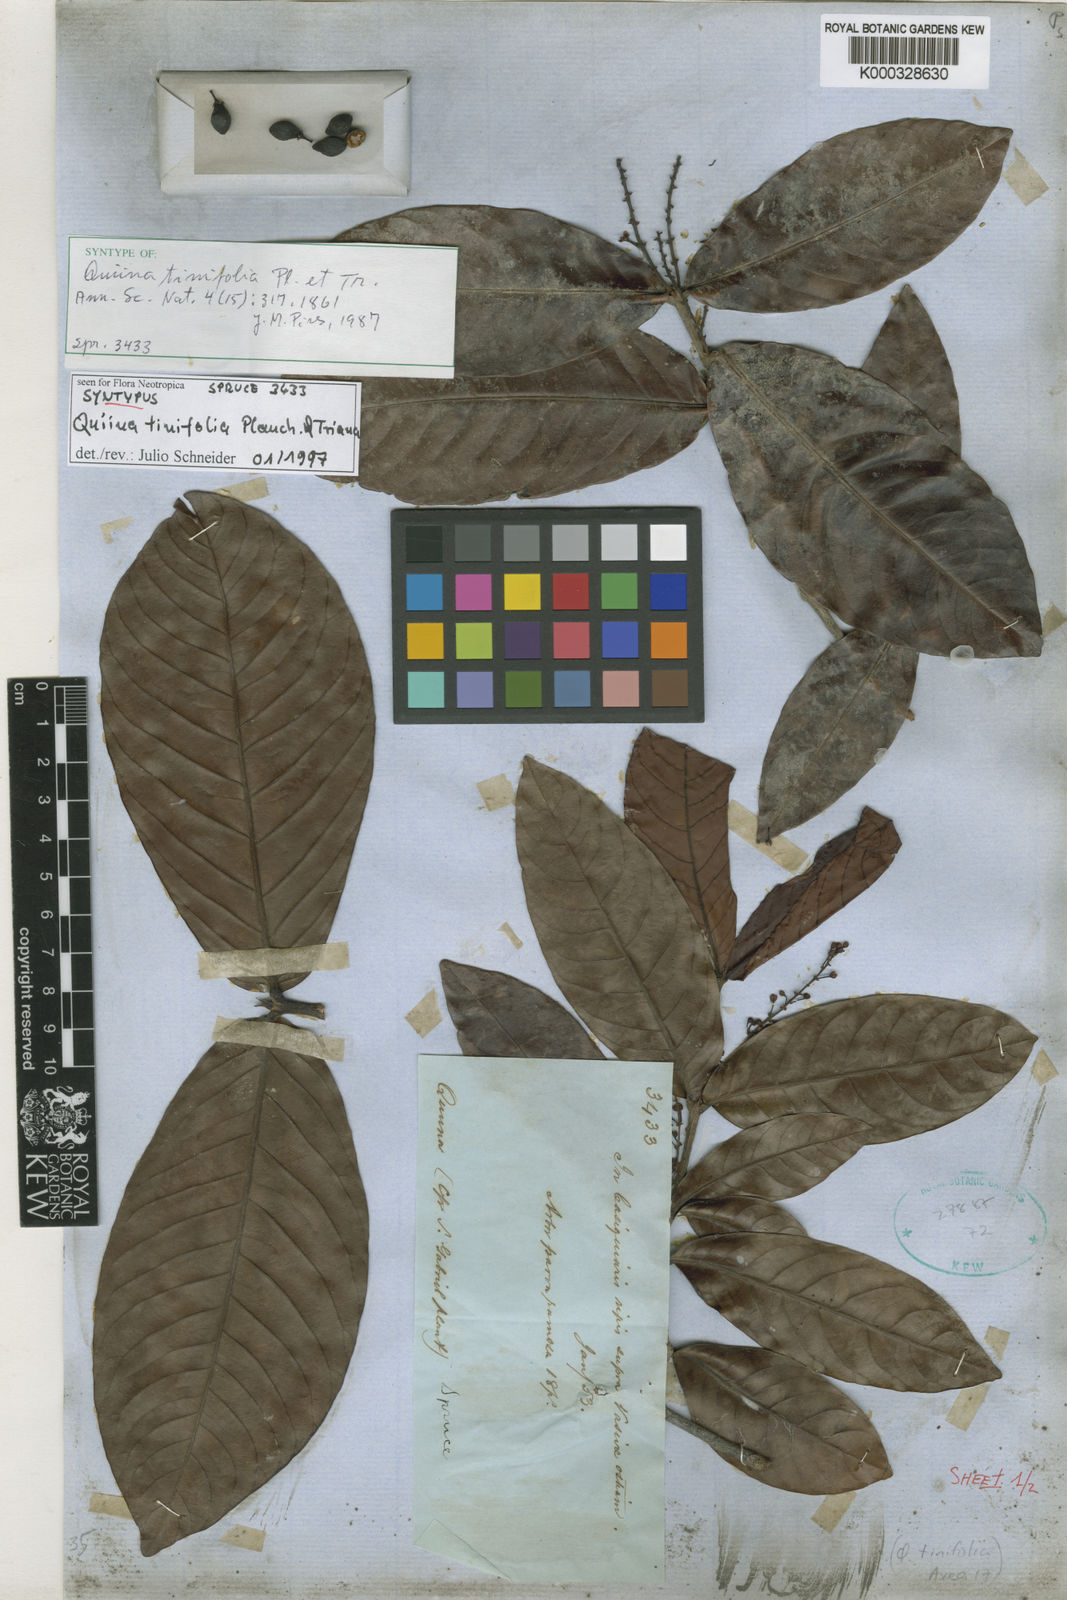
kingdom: Plantae
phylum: Tracheophyta
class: Magnoliopsida
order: Malpighiales
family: Quiinaceae
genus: Quiina
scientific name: Quiina tinifolia
